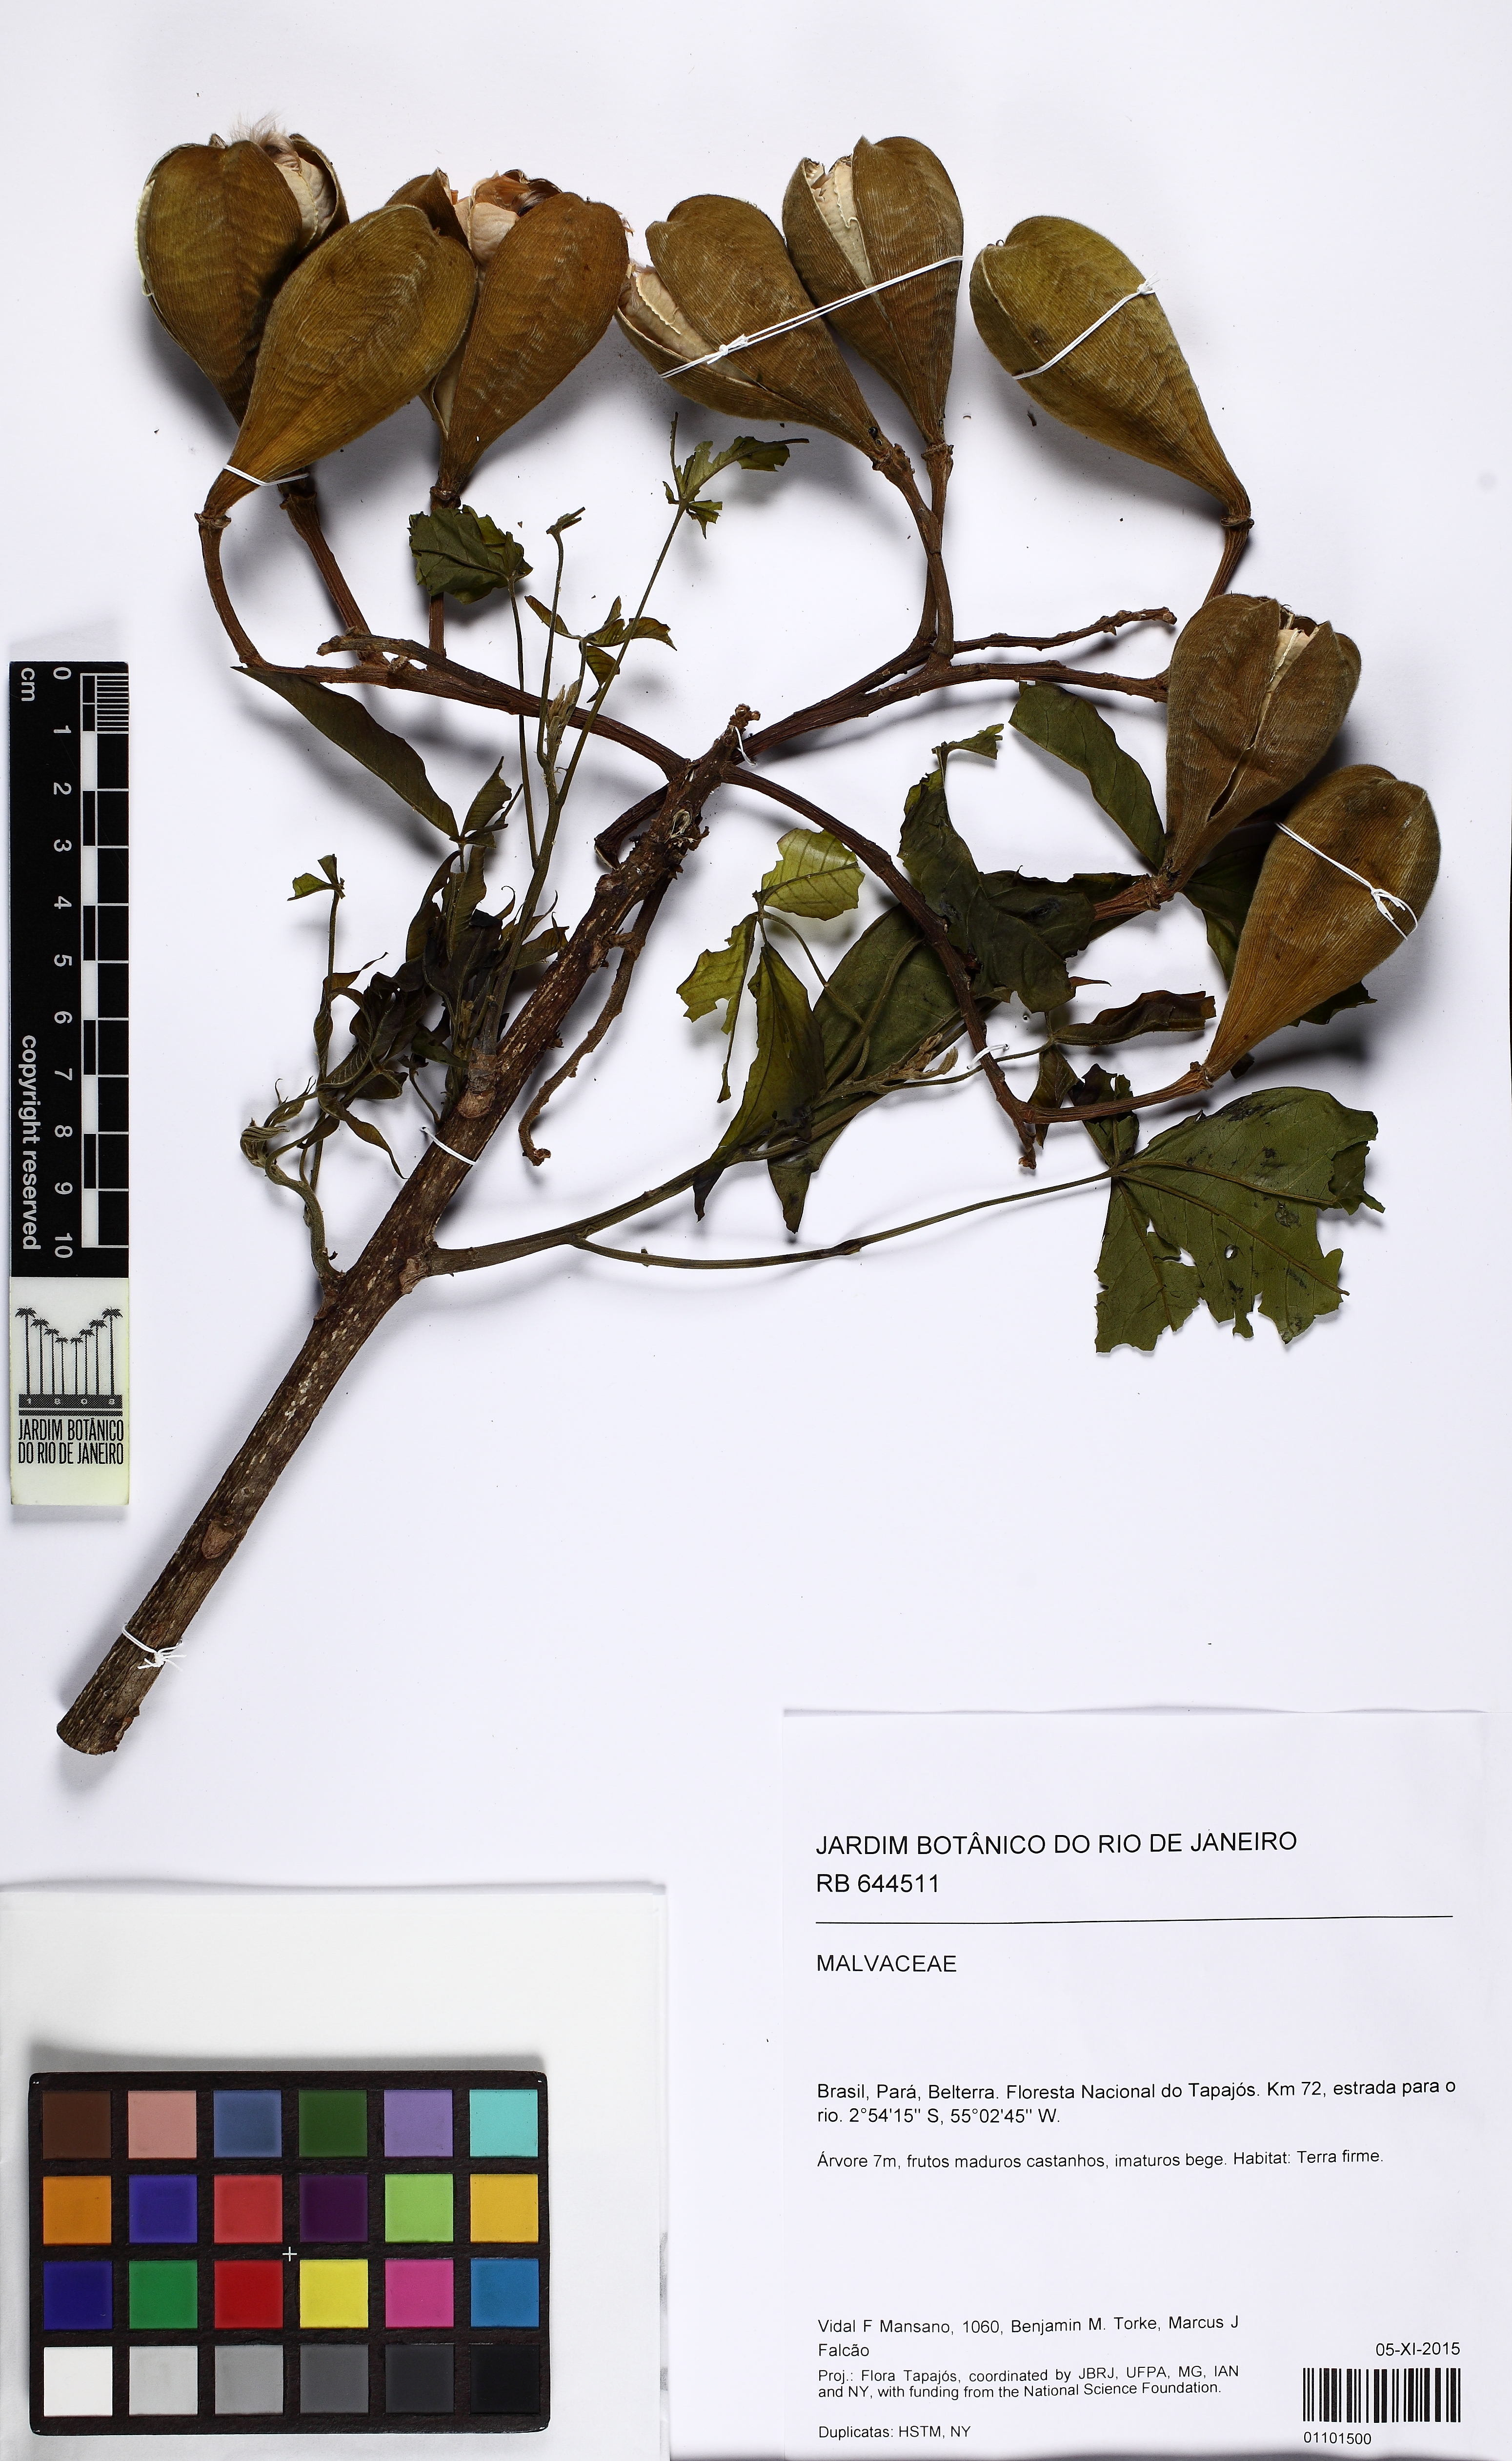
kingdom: Plantae
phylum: Tracheophyta
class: Magnoliopsida
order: Malvales
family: Cochlospermaceae
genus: Cochlospermum
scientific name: Cochlospermum
